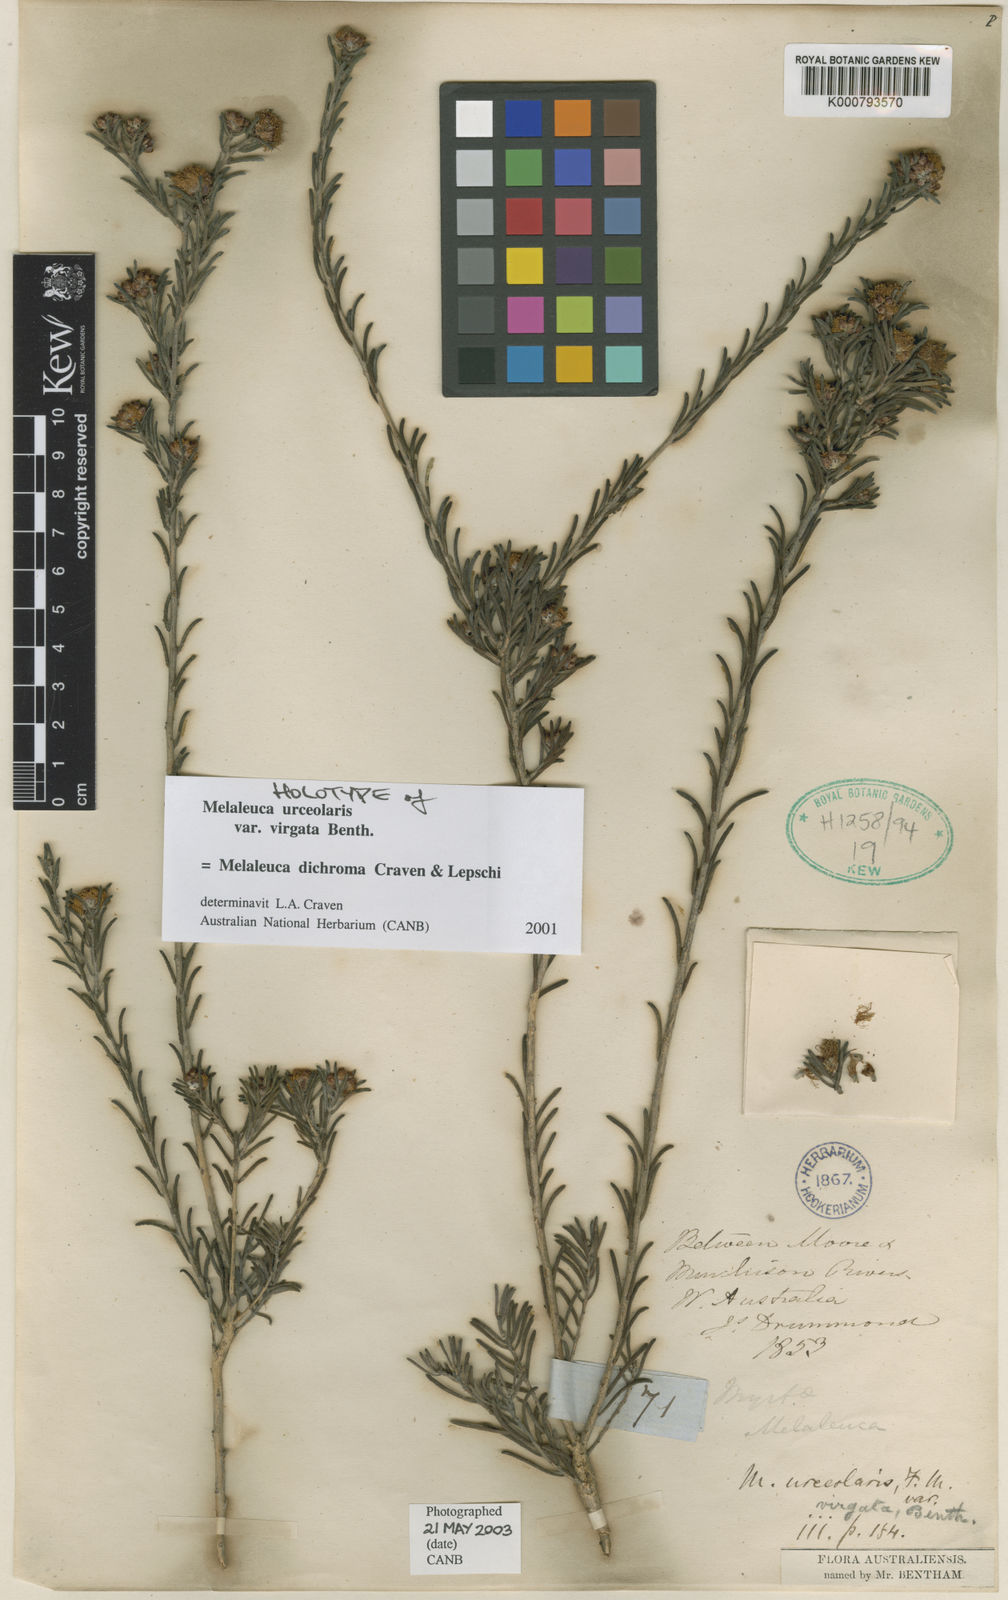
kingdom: Plantae
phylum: Tracheophyta
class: Magnoliopsida
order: Myrtales
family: Myrtaceae
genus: Melaleuca
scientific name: Melaleuca dichroma
